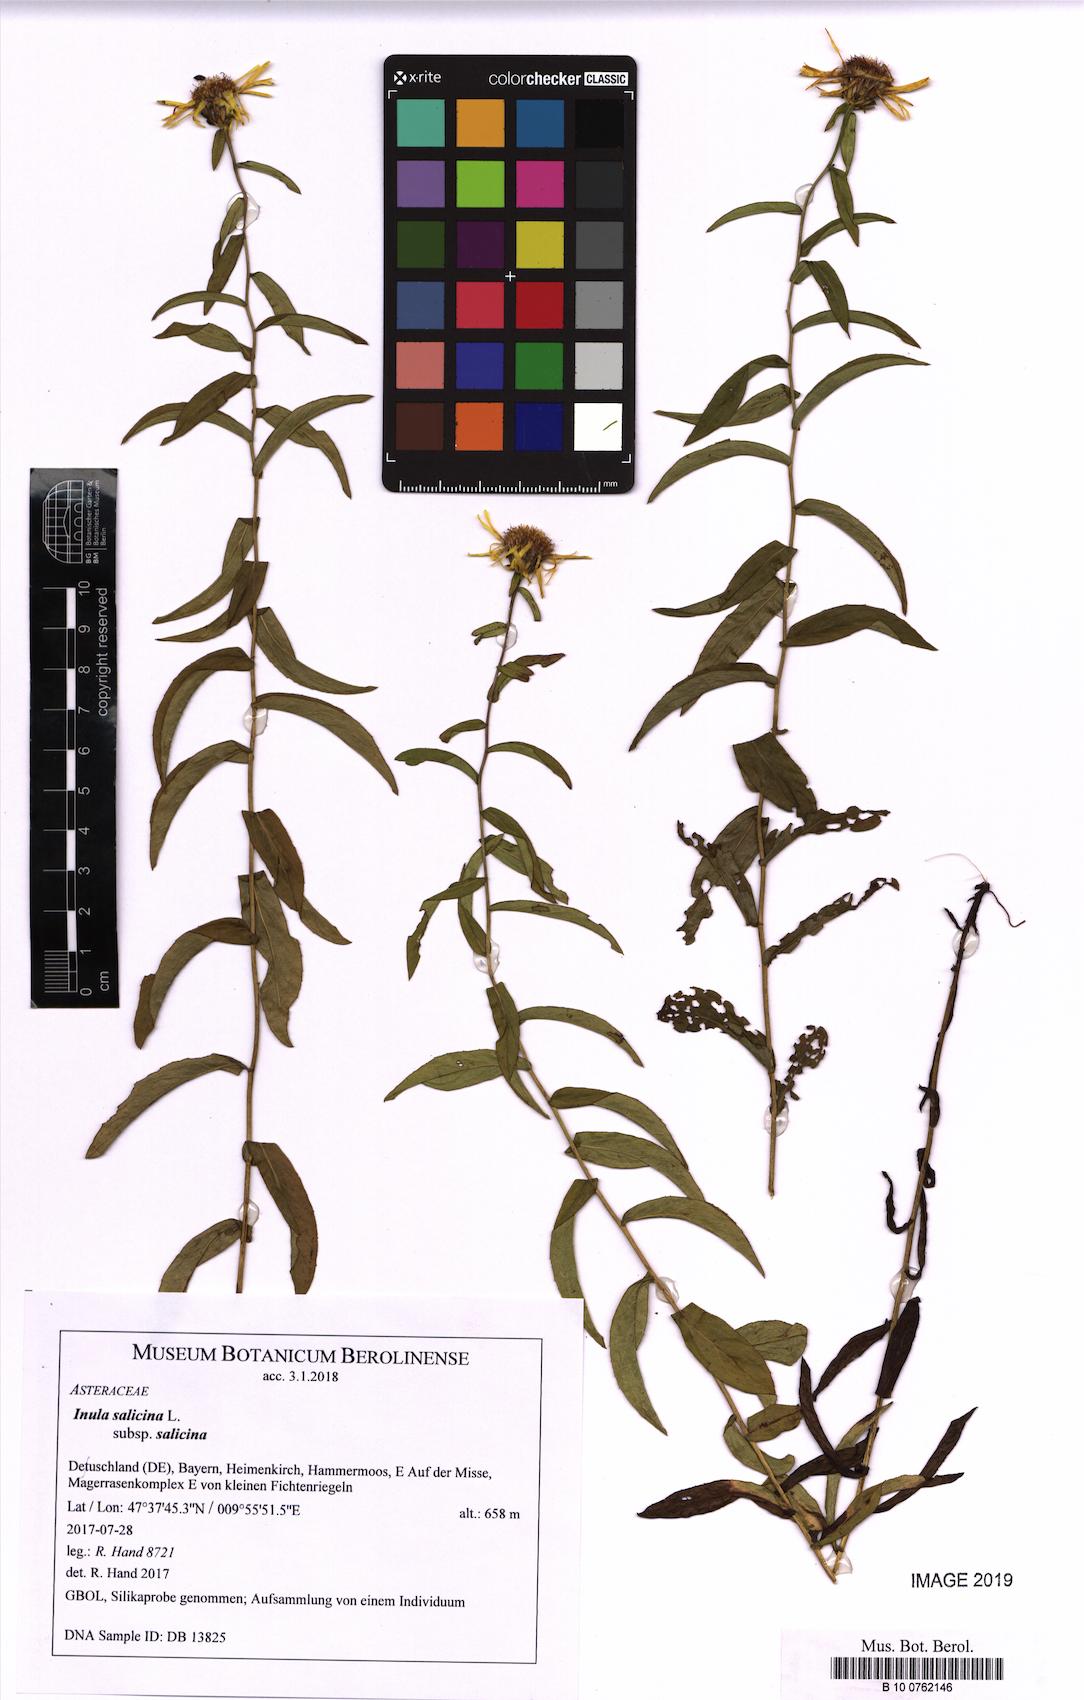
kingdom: Plantae
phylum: Tracheophyta
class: Magnoliopsida
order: Asterales
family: Asteraceae
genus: Pentanema
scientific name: Pentanema salicinum
